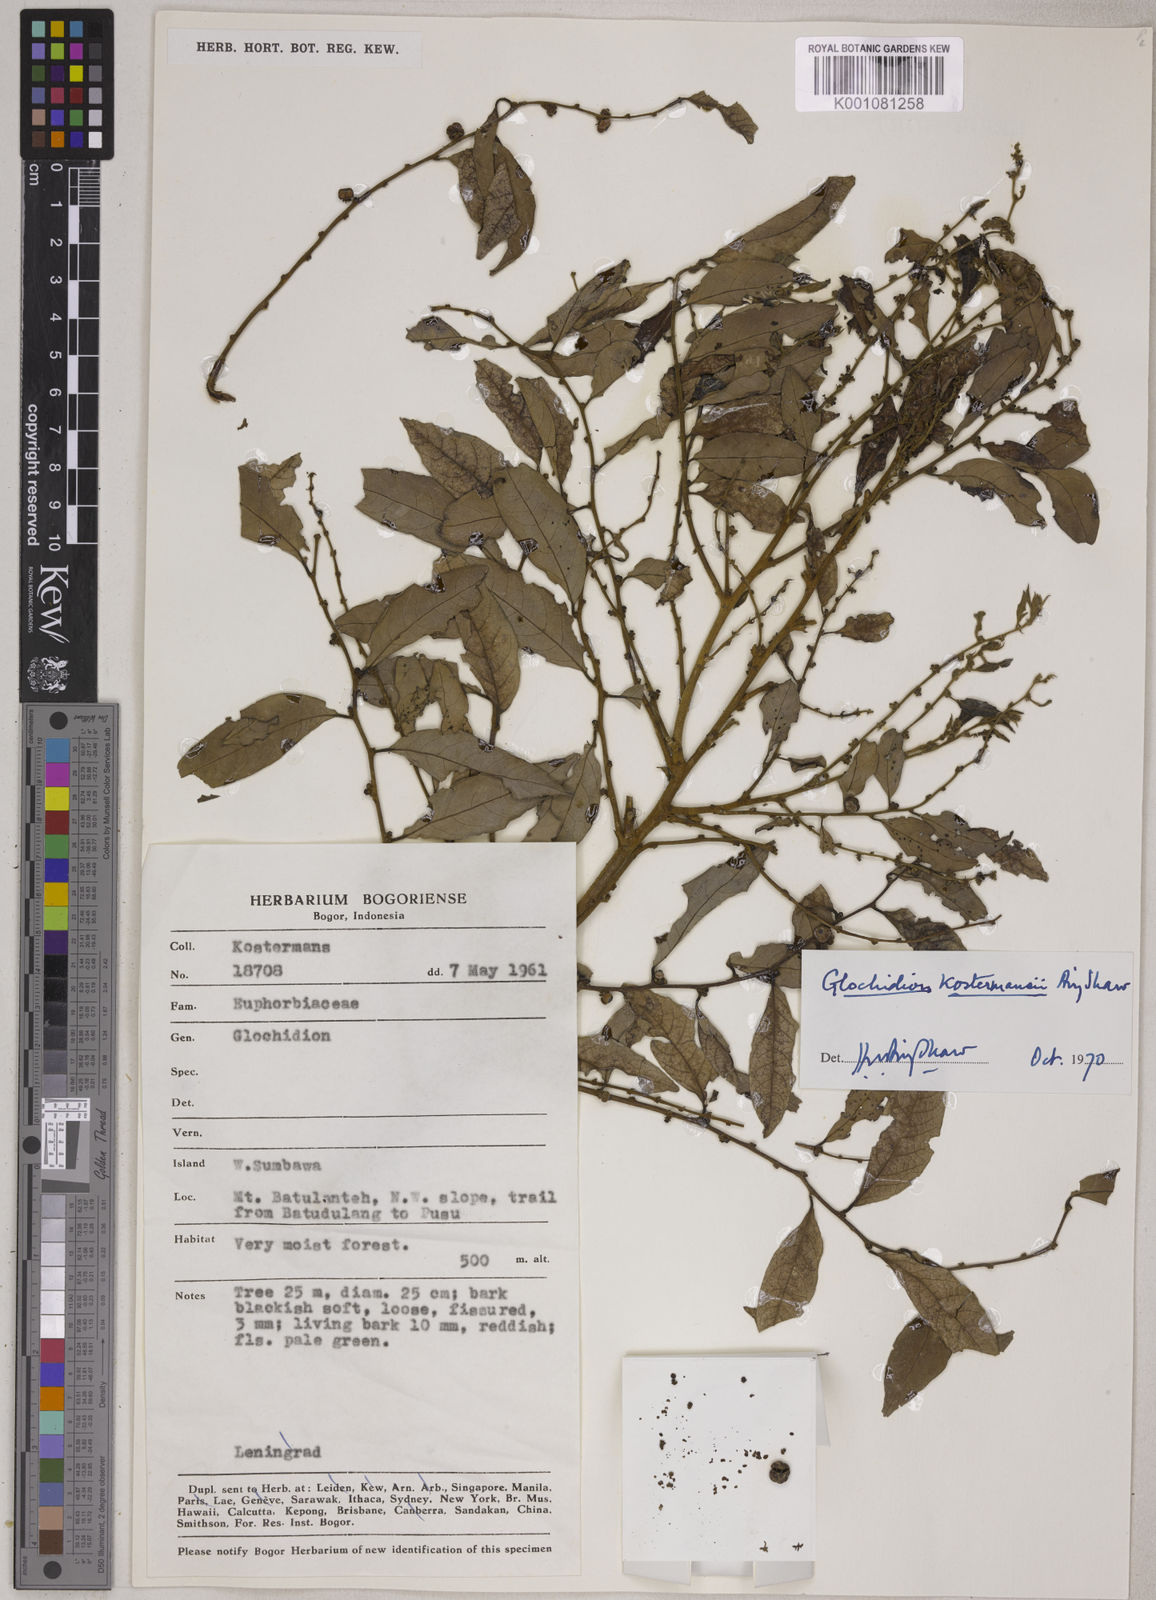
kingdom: Plantae
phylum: Tracheophyta
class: Magnoliopsida
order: Malpighiales
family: Phyllanthaceae
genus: Glochidion
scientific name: Glochidion kostermansii
